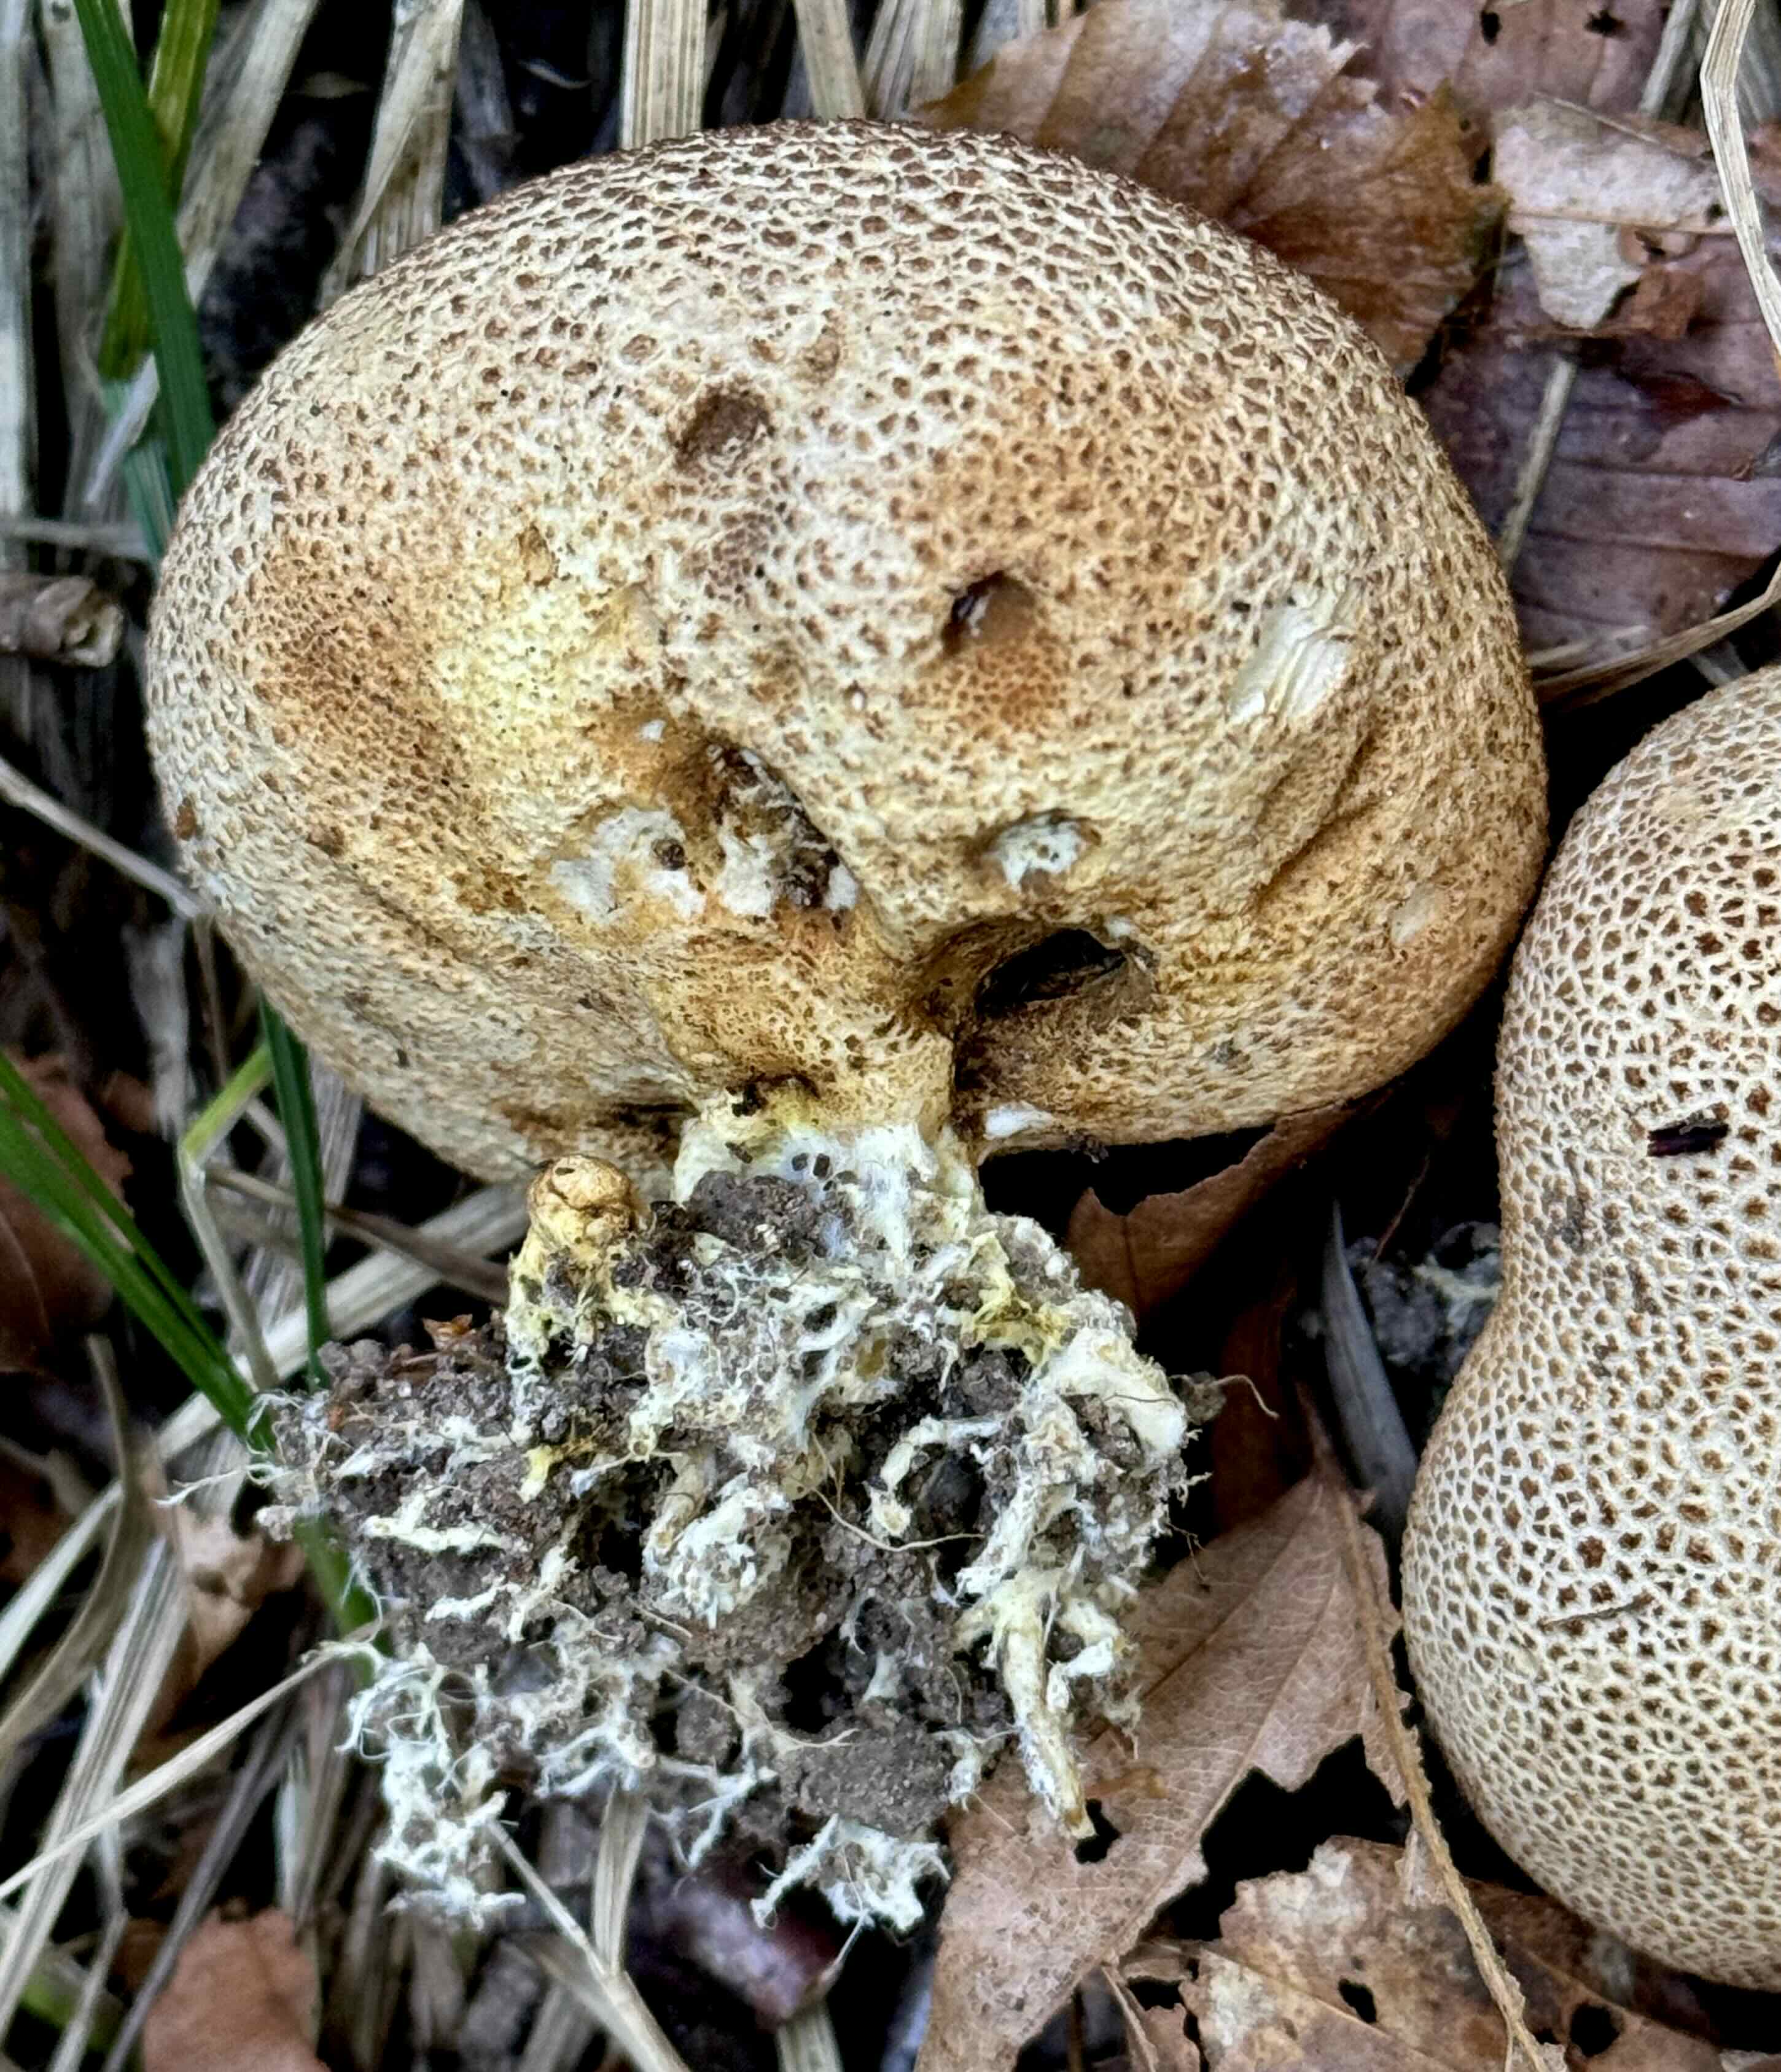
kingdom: Fungi
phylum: Basidiomycota
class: Agaricomycetes
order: Boletales
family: Sclerodermataceae
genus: Scleroderma
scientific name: Scleroderma
